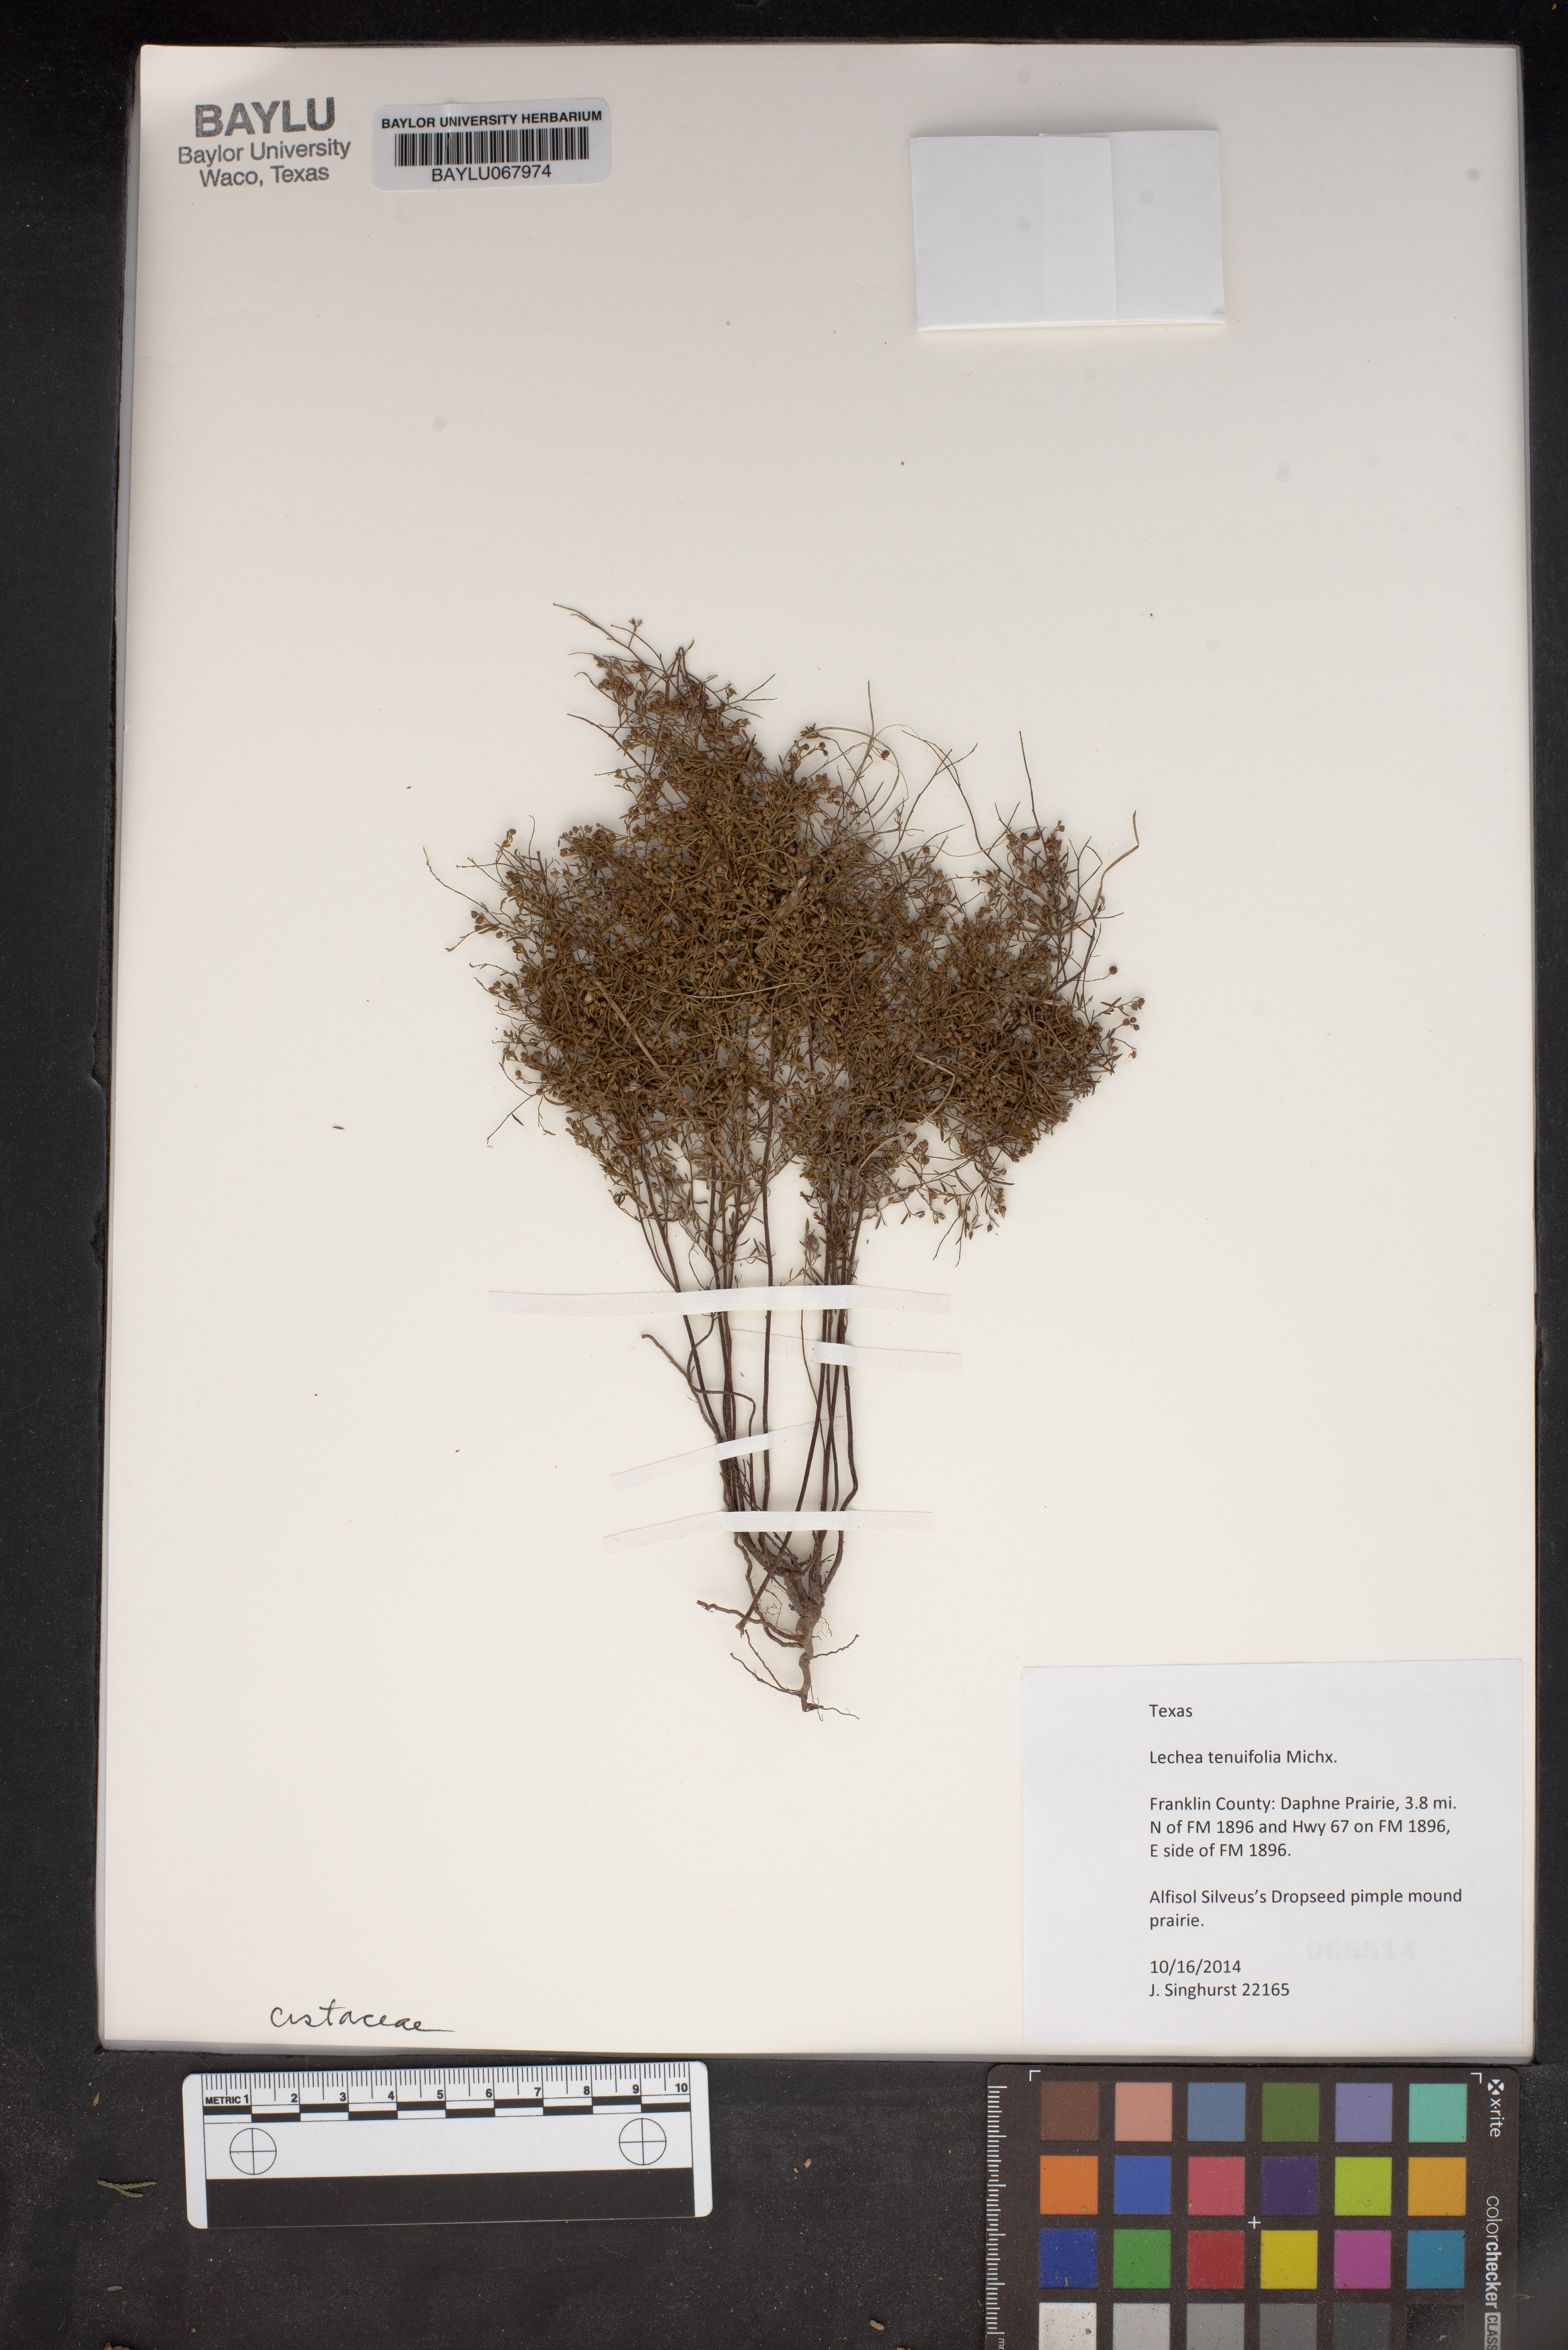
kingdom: Plantae
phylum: Tracheophyta
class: Magnoliopsida
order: Malvales
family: Cistaceae
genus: Lechea
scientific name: Lechea tenuifolia
